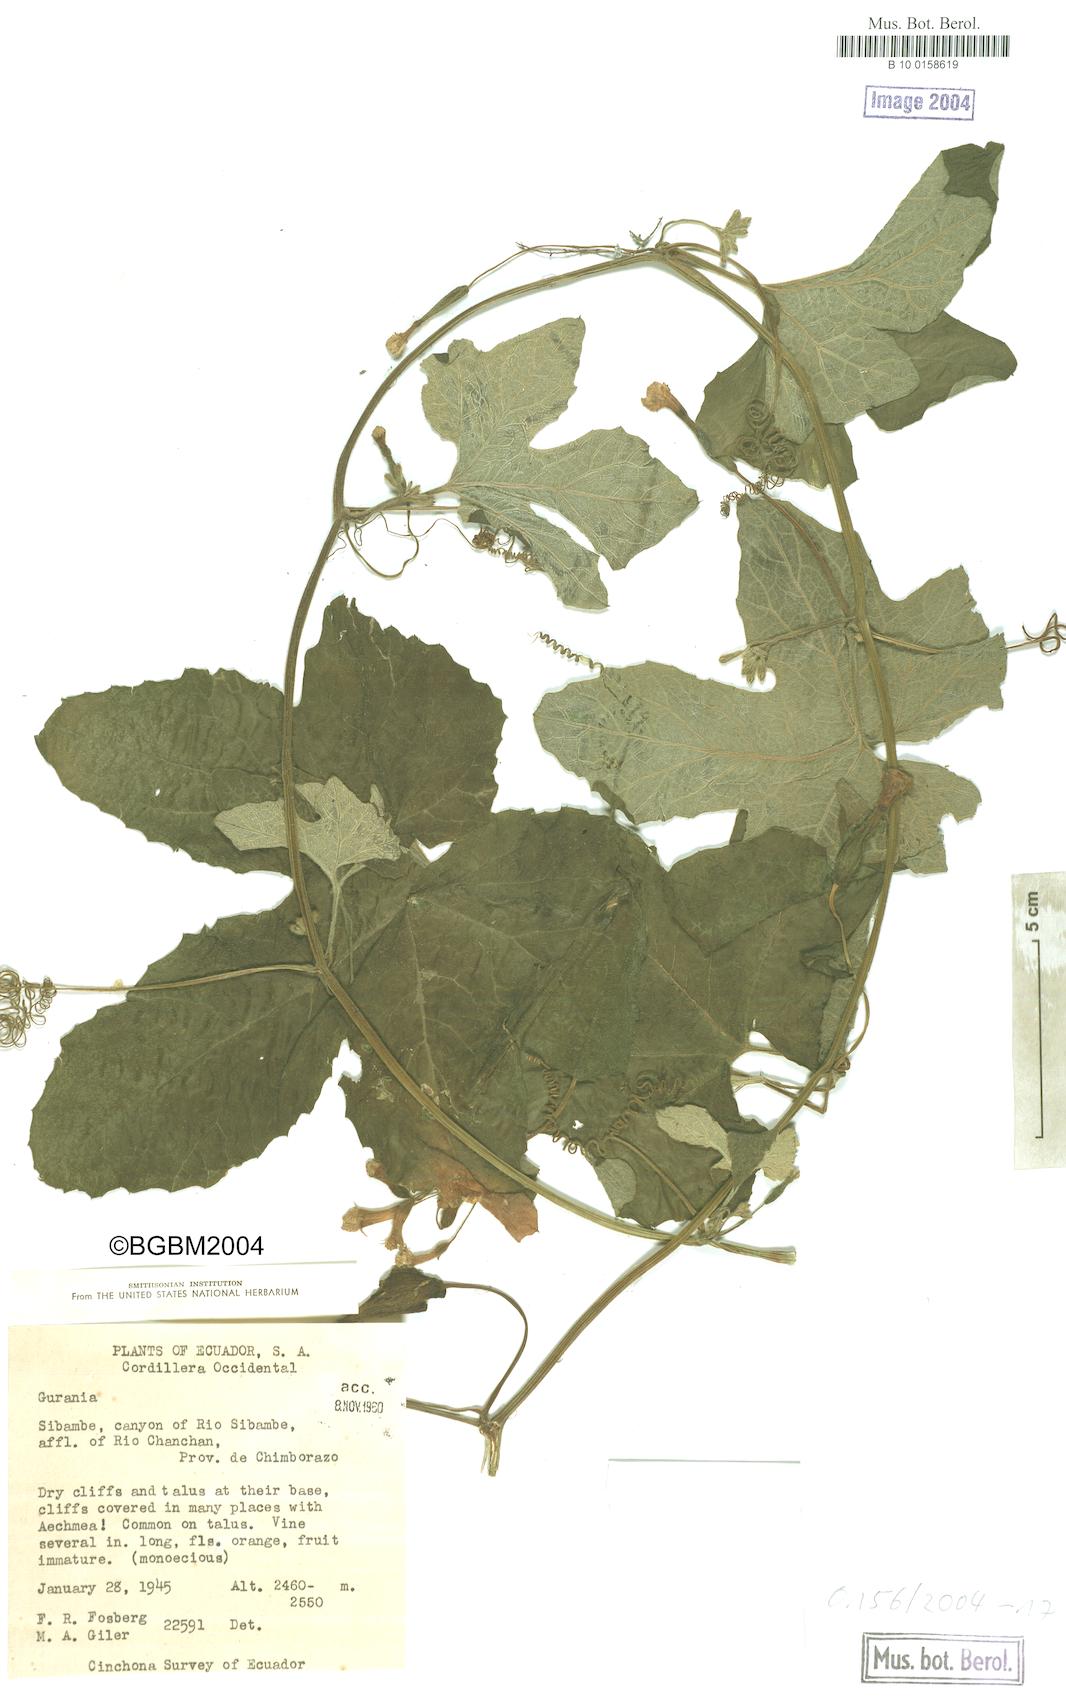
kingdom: Plantae
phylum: Tracheophyta
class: Magnoliopsida
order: Cucurbitales
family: Cucurbitaceae
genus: Apodanthera
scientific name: Apodanthera
